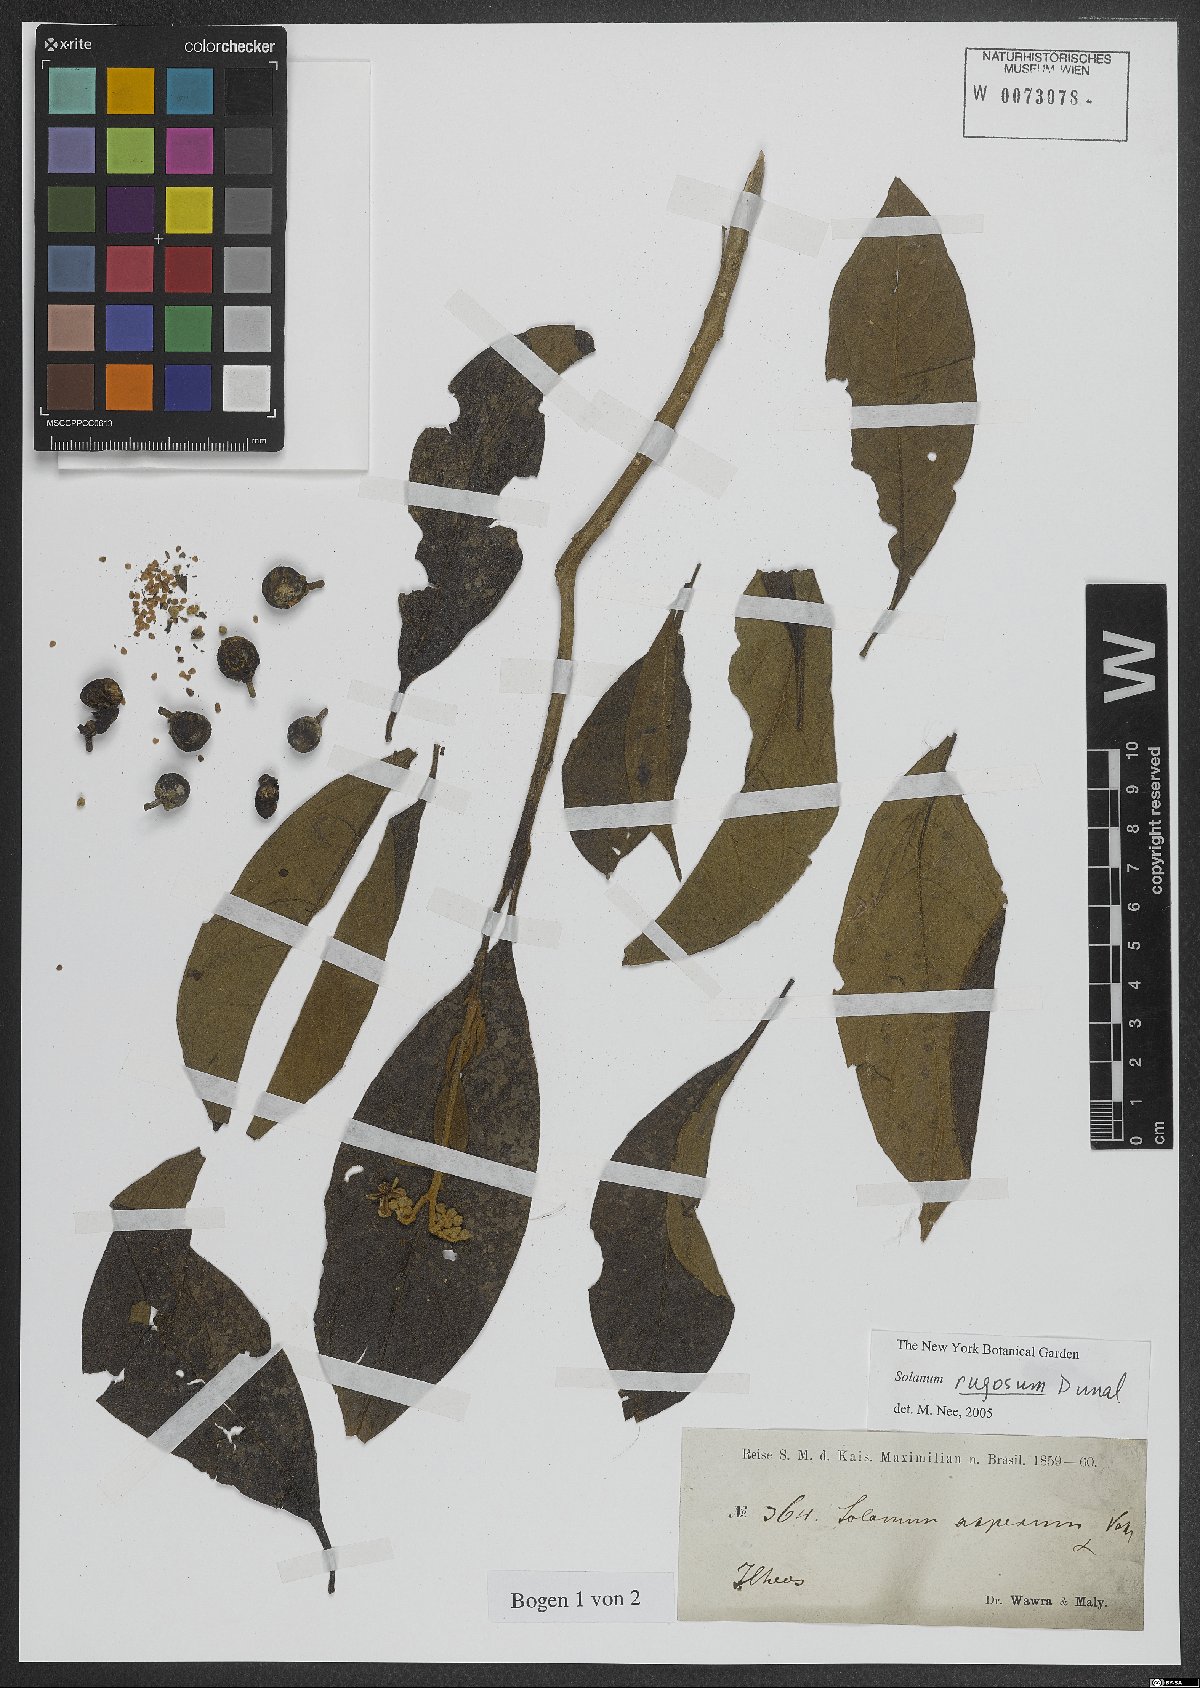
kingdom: Plantae
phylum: Tracheophyta
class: Magnoliopsida
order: Solanales
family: Solanaceae
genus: Solanum
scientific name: Solanum rugosum
